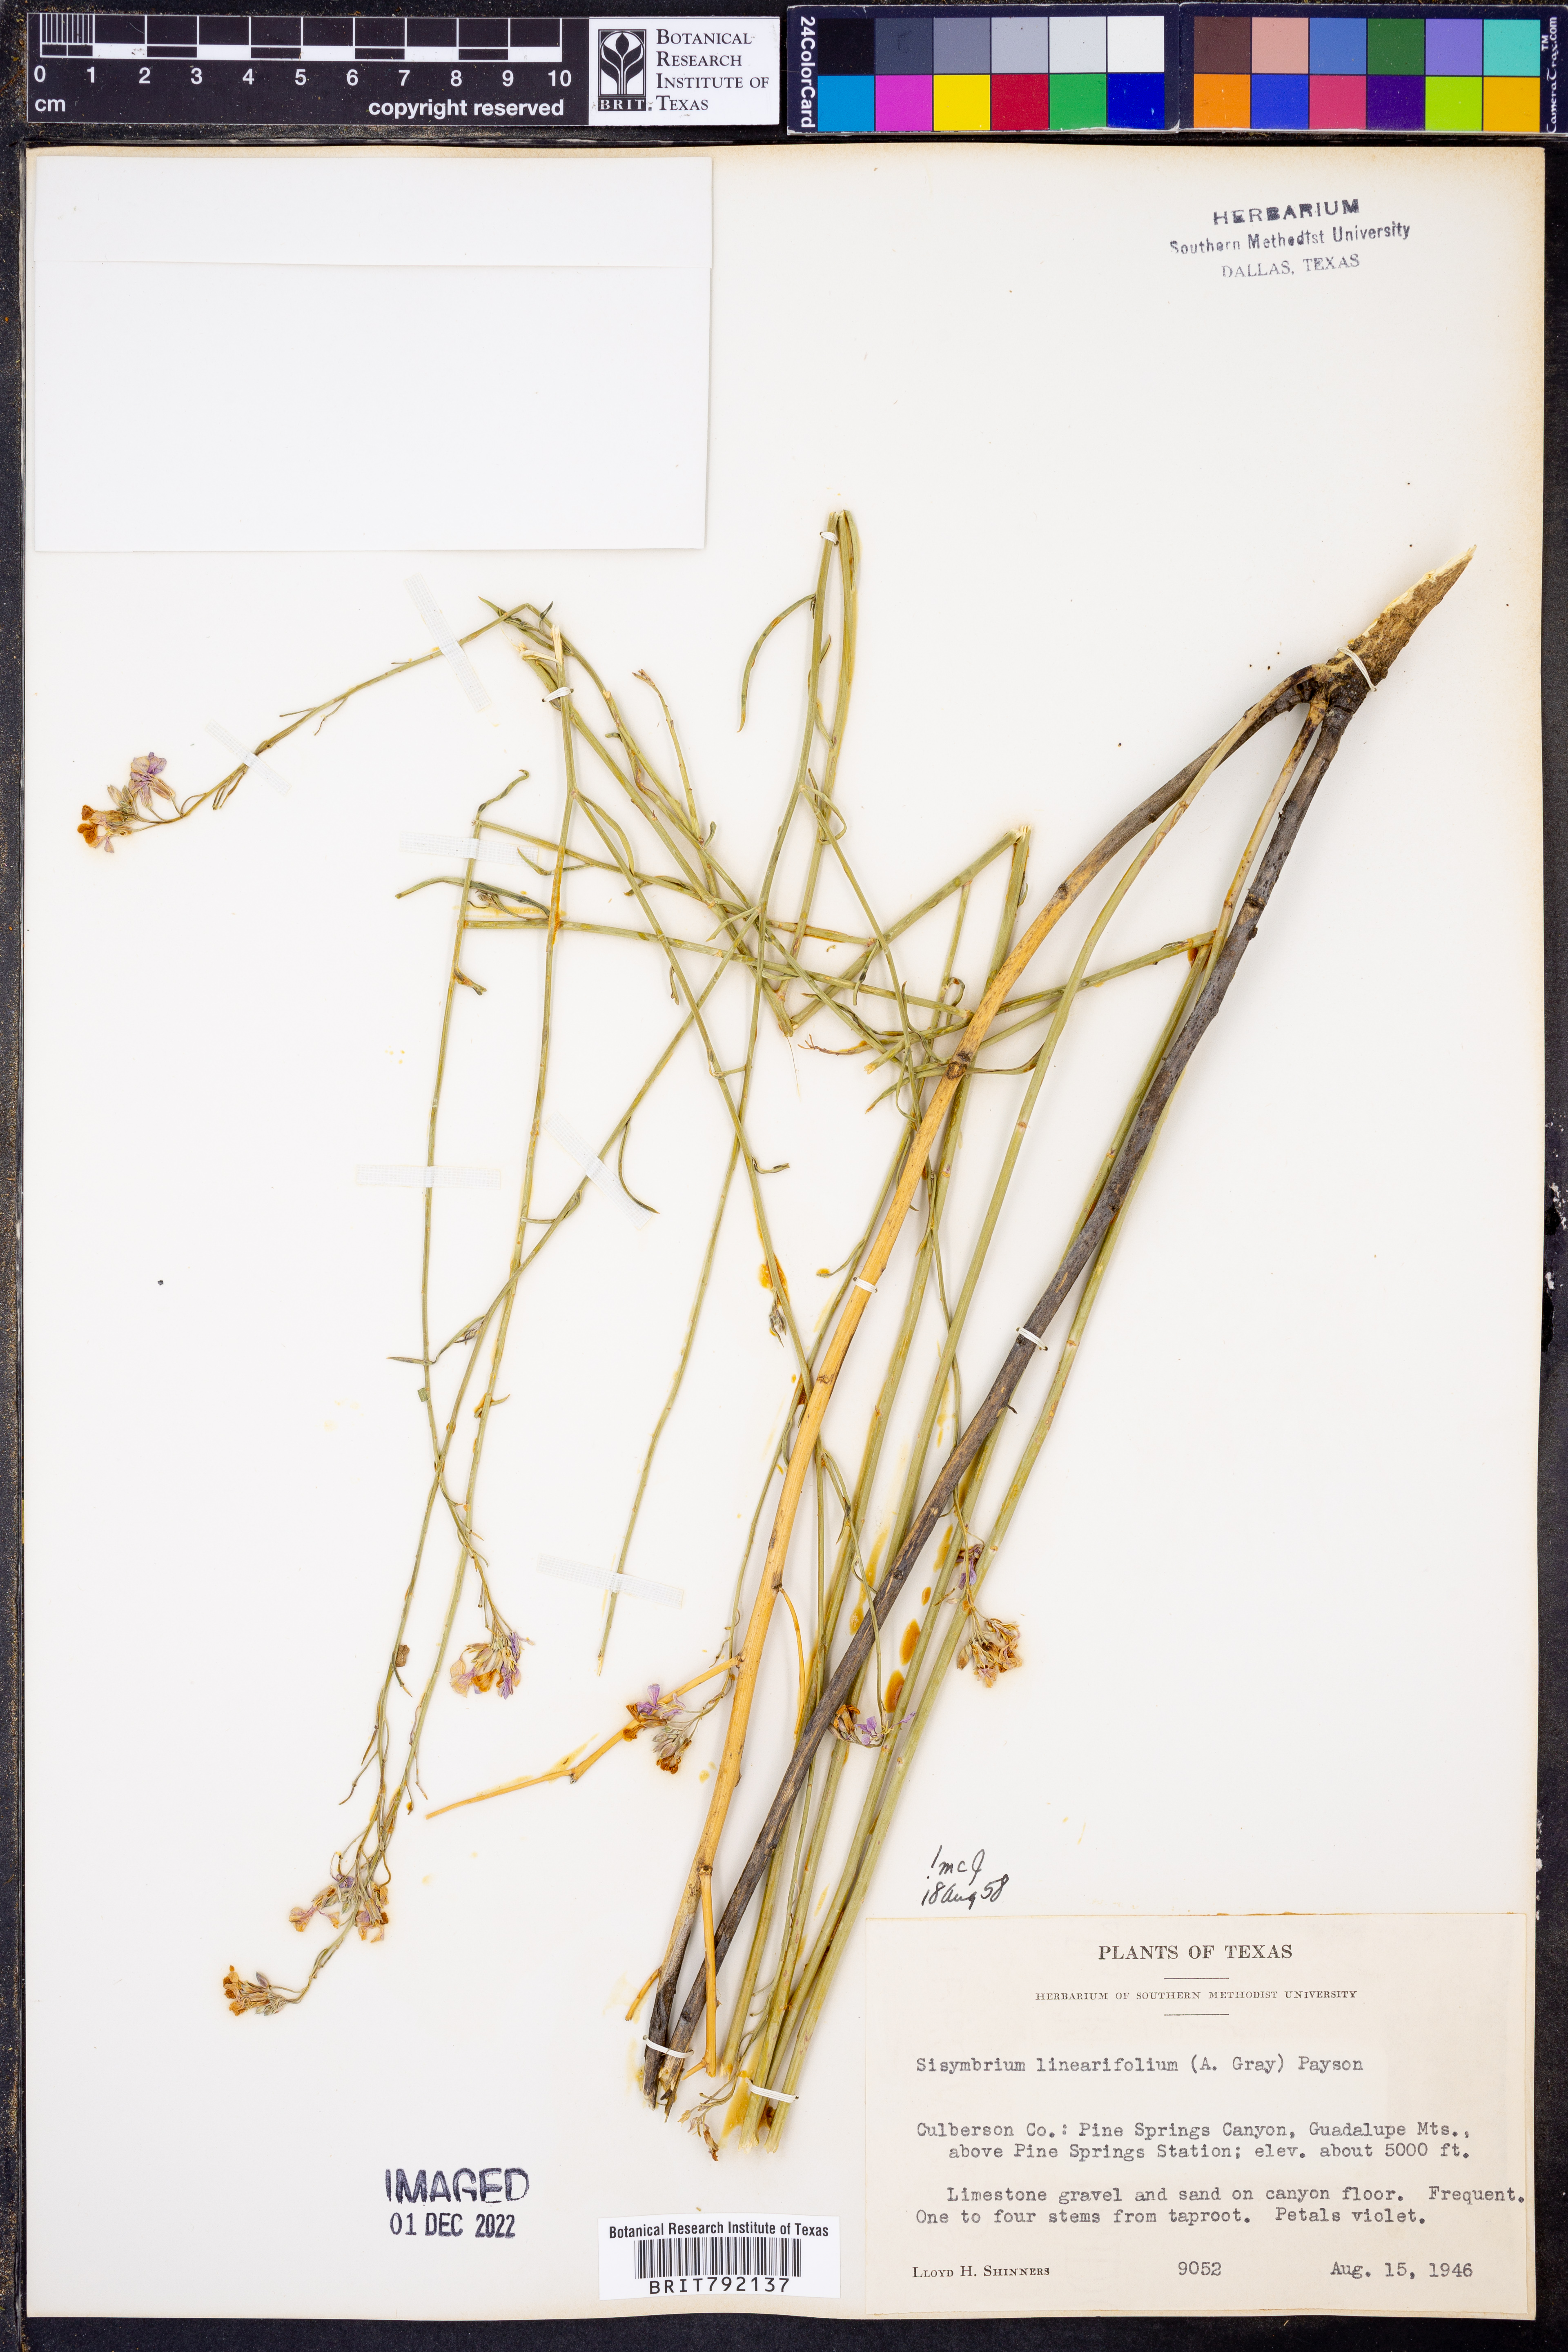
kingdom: Plantae
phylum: Tracheophyta
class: Magnoliopsida
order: Brassicales
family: Brassicaceae
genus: Hesperidanthus
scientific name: Hesperidanthus linearifolius
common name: Slim-leaf plains mustard
